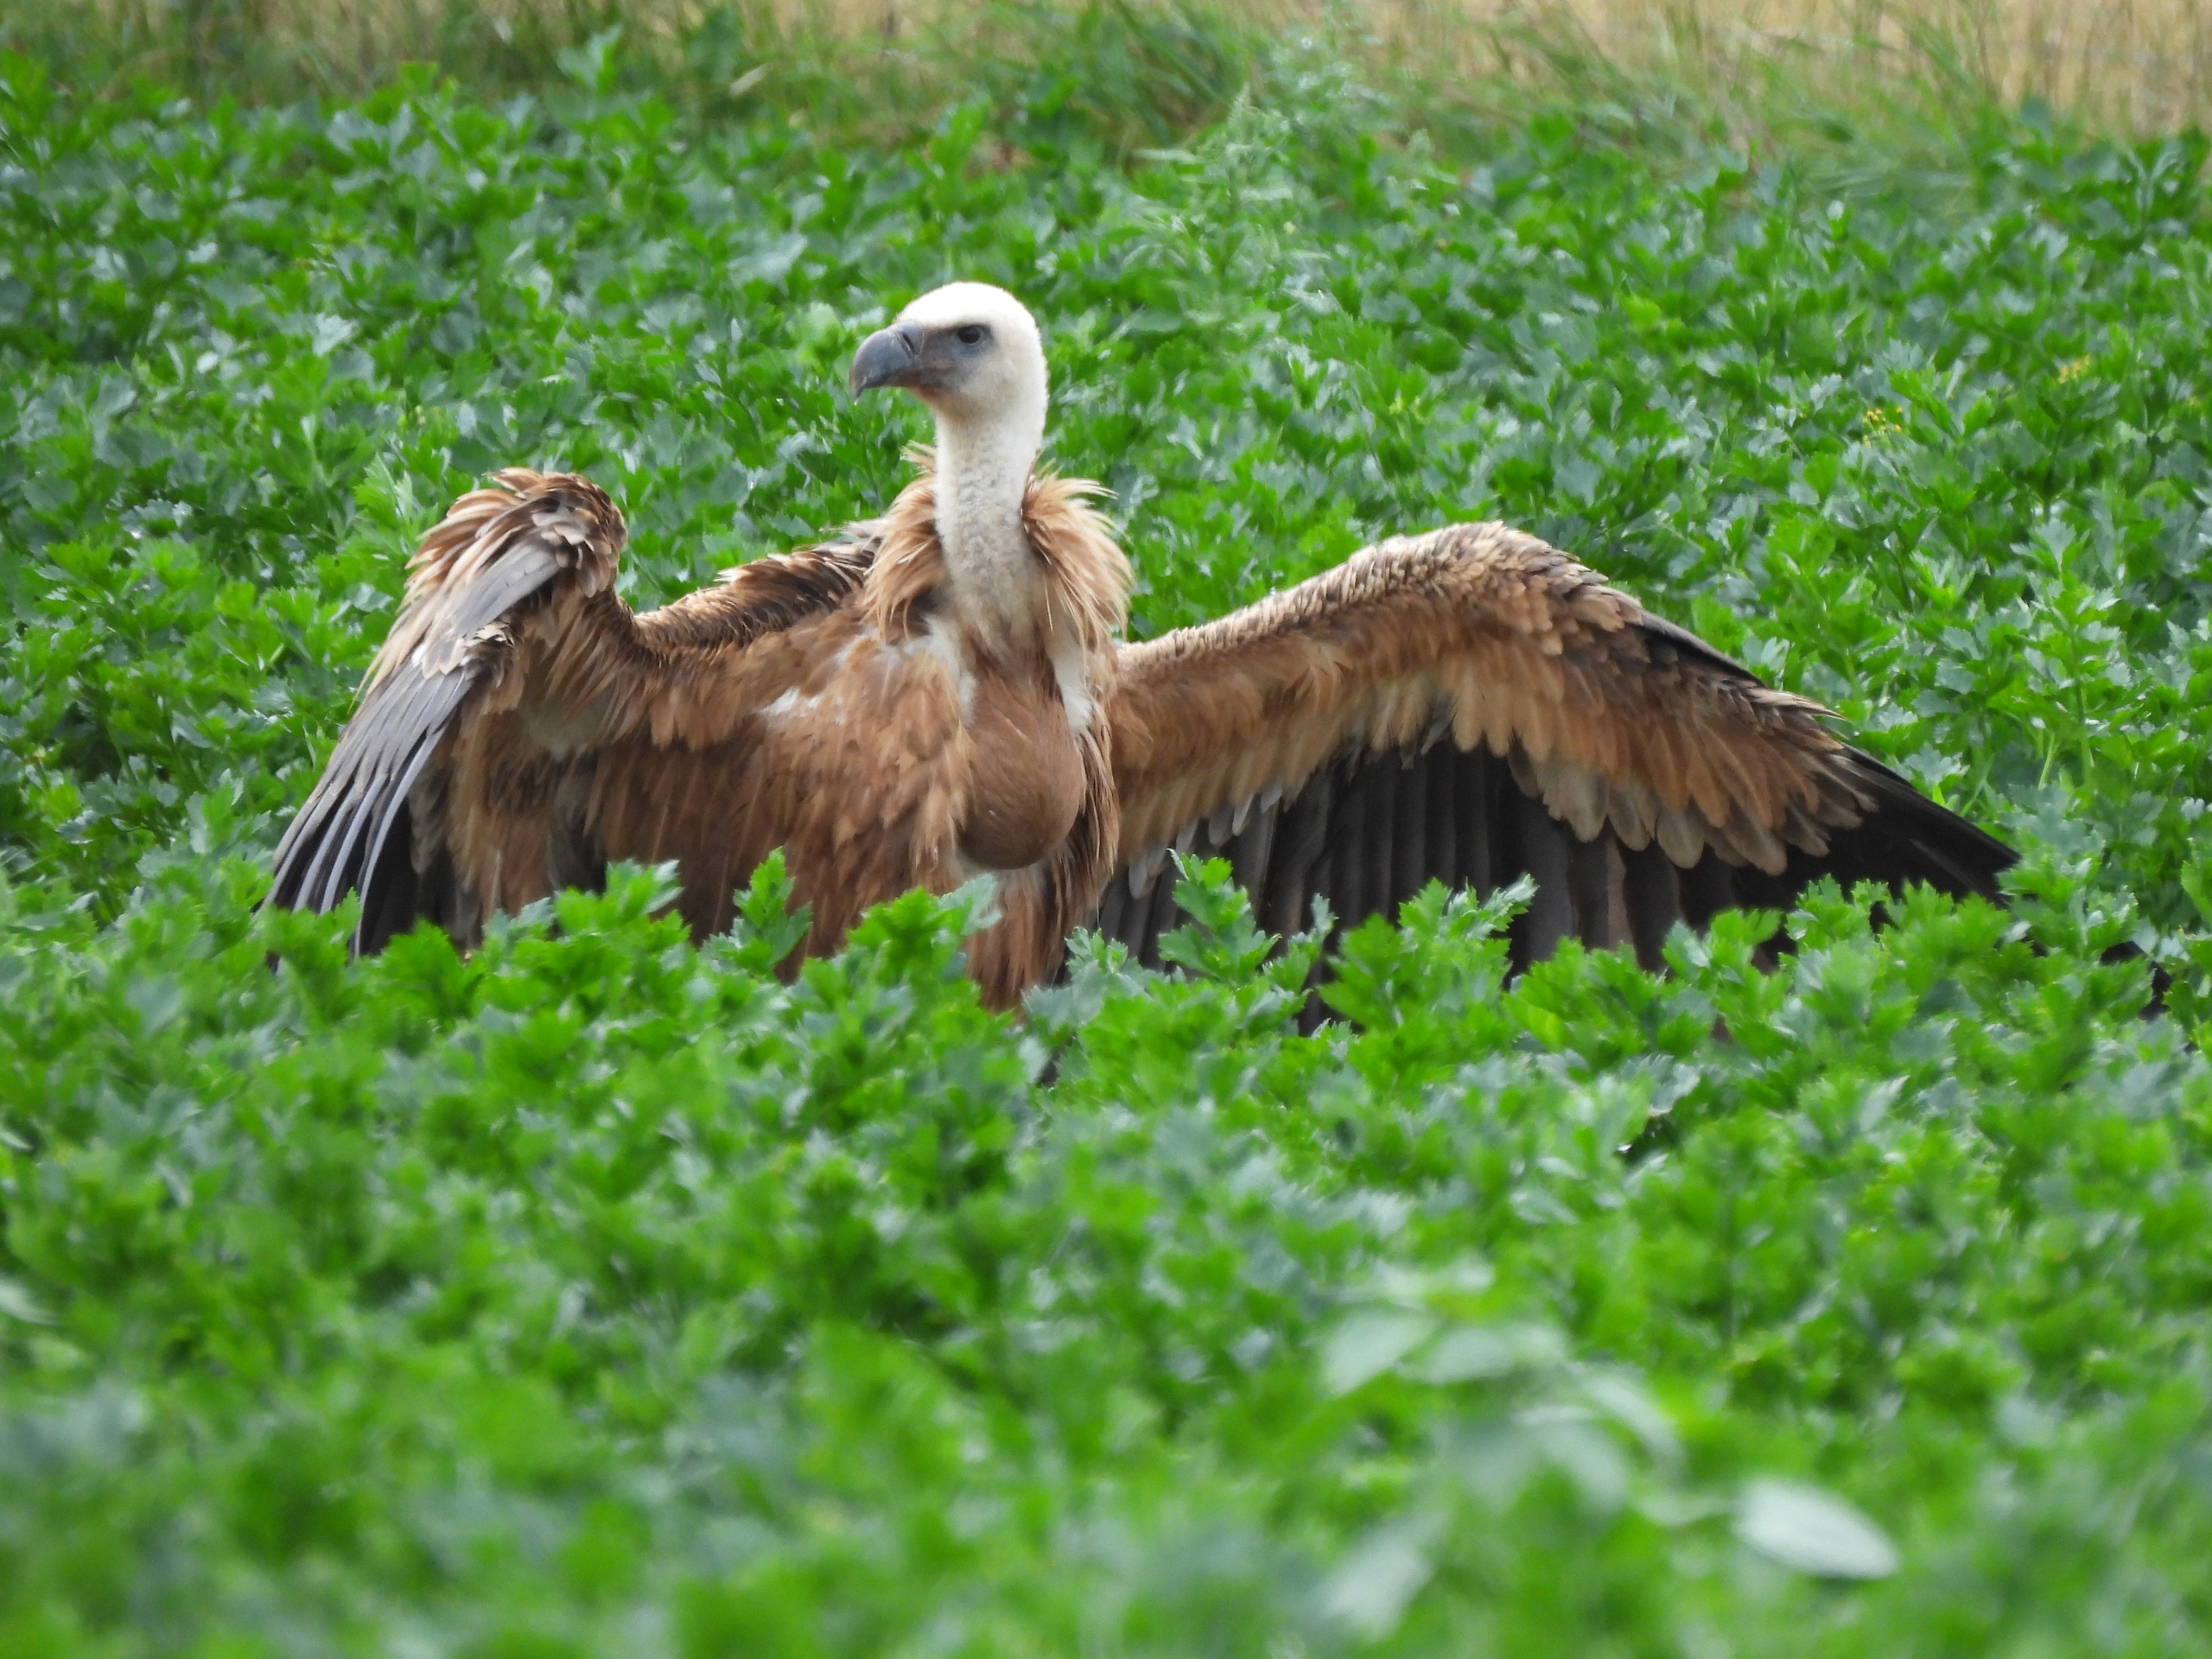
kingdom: Animalia
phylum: Chordata
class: Aves
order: Accipitriformes
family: Accipitridae
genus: Gyps
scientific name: Gyps fulvus
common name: Gåsegrib
